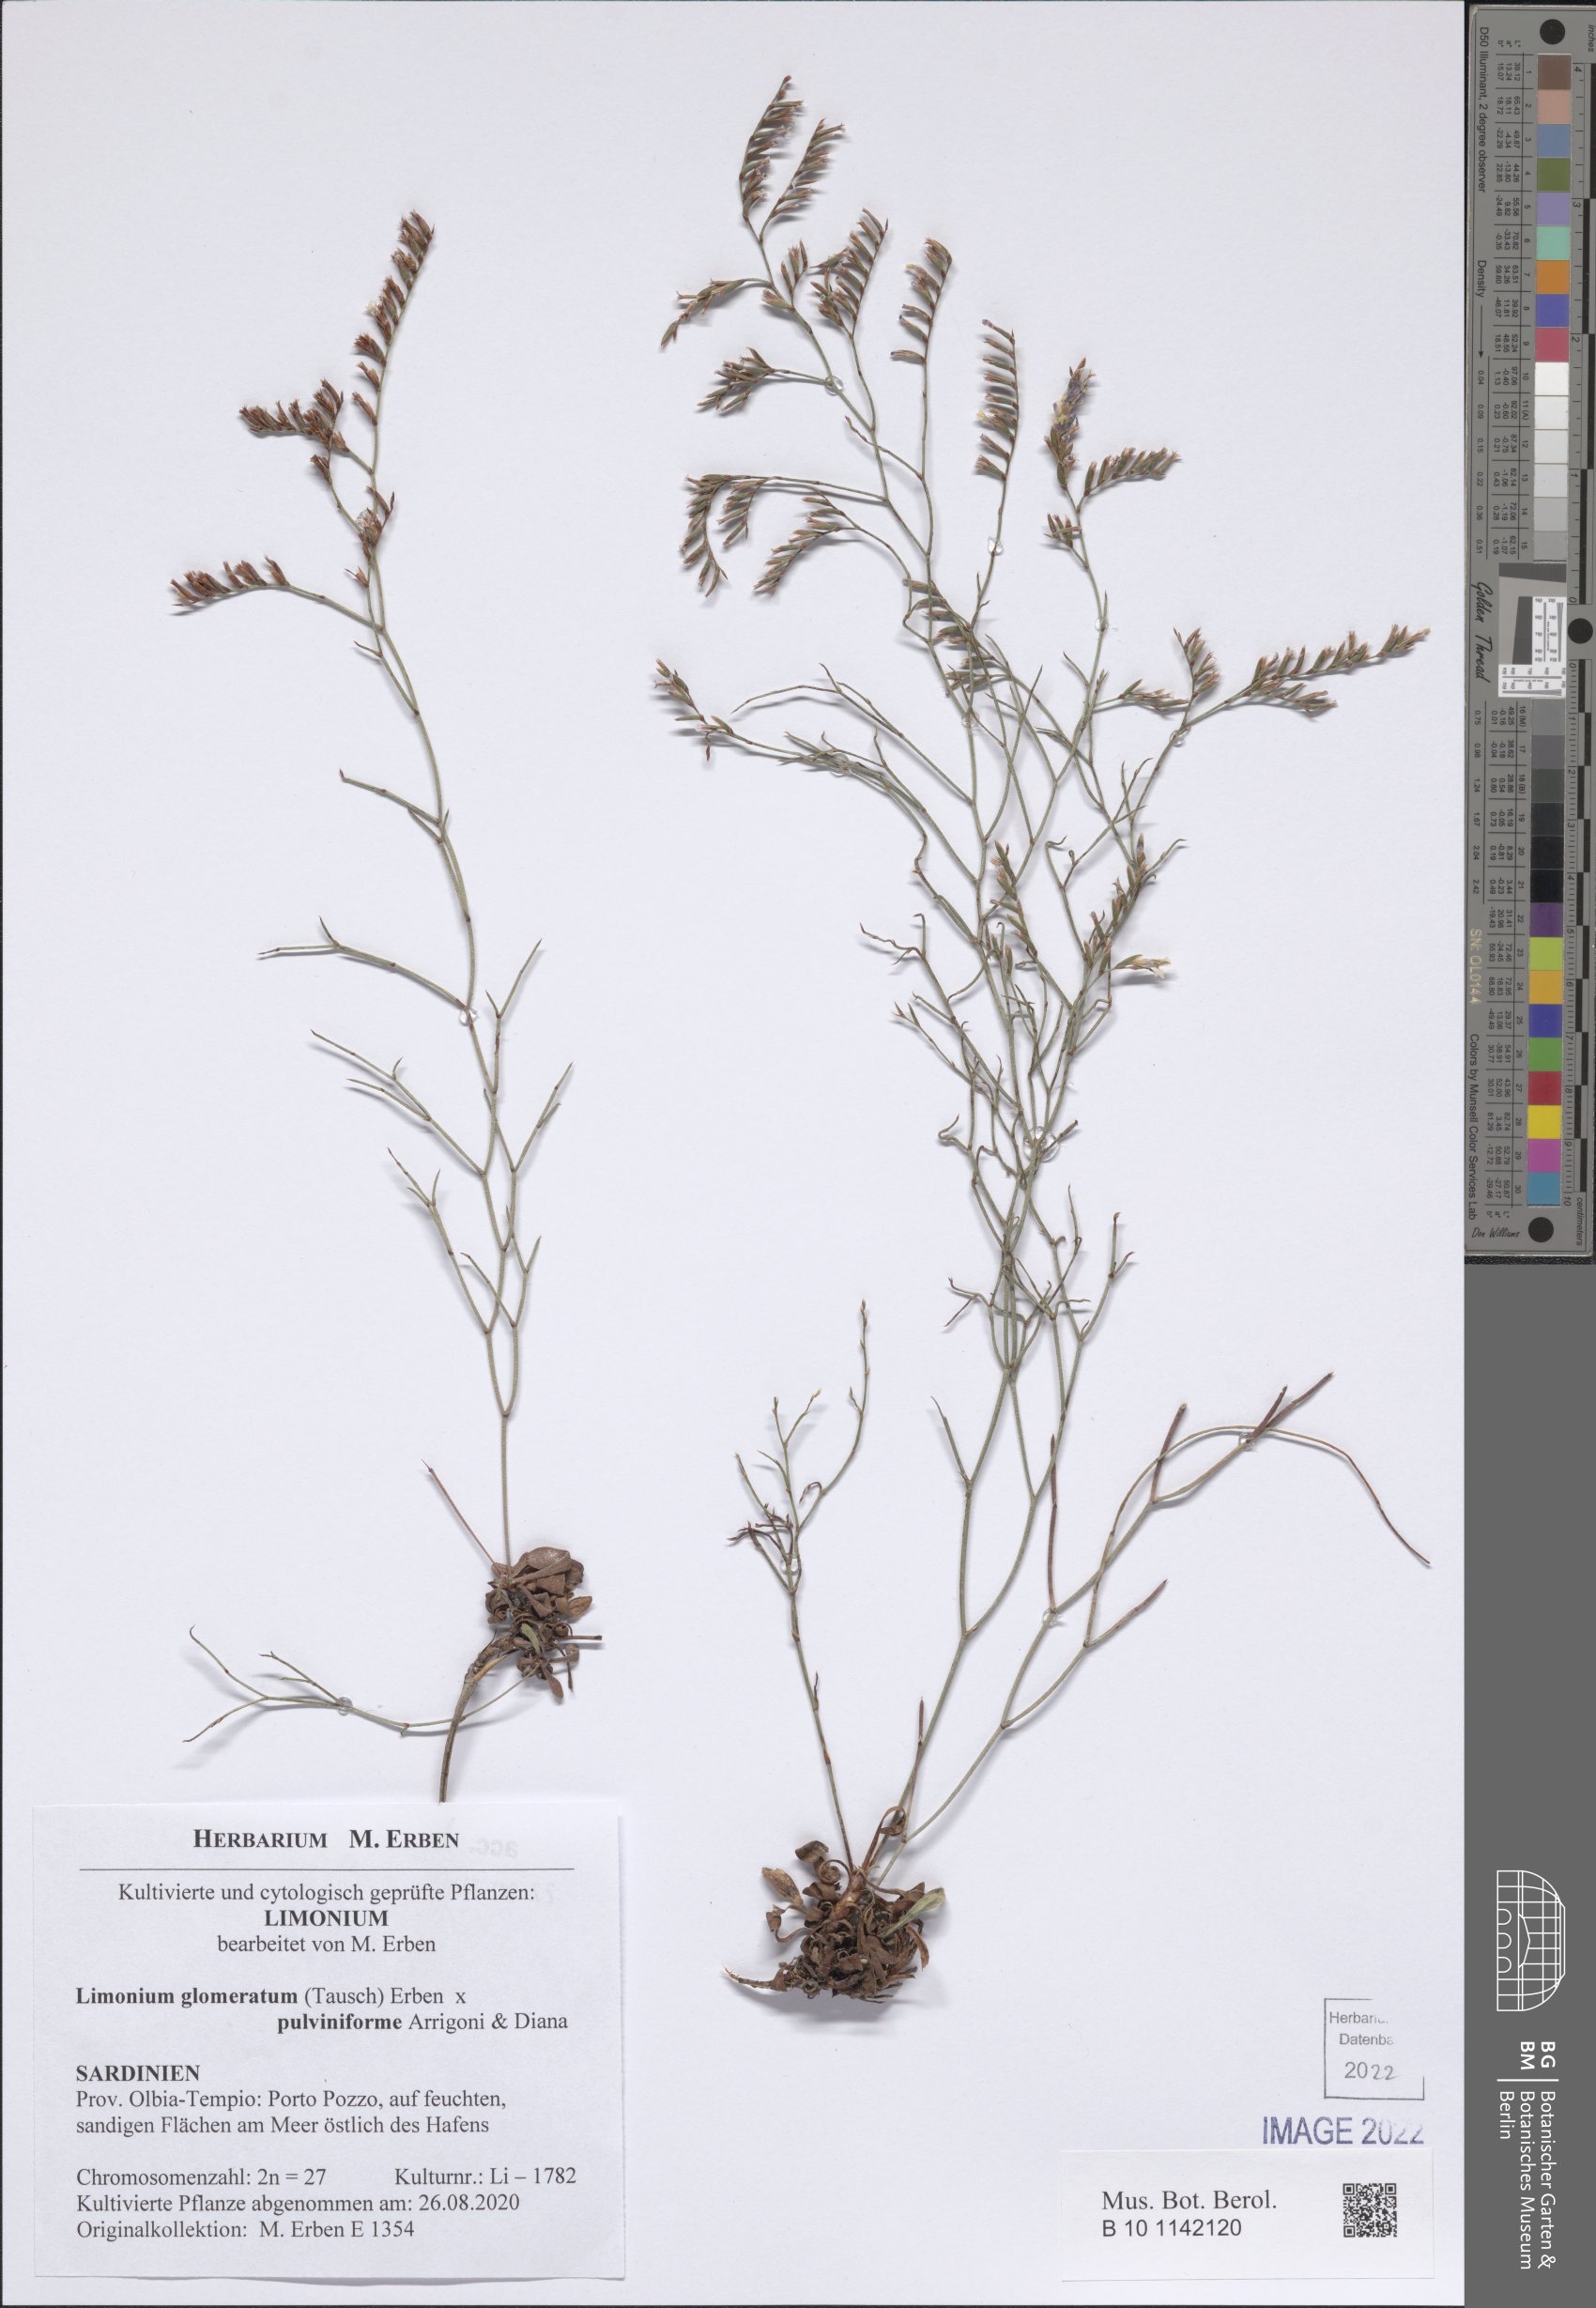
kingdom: Plantae
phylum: Tracheophyta
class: Magnoliopsida
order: Caryophyllales
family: Plumbaginaceae
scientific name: Plumbaginaceae
